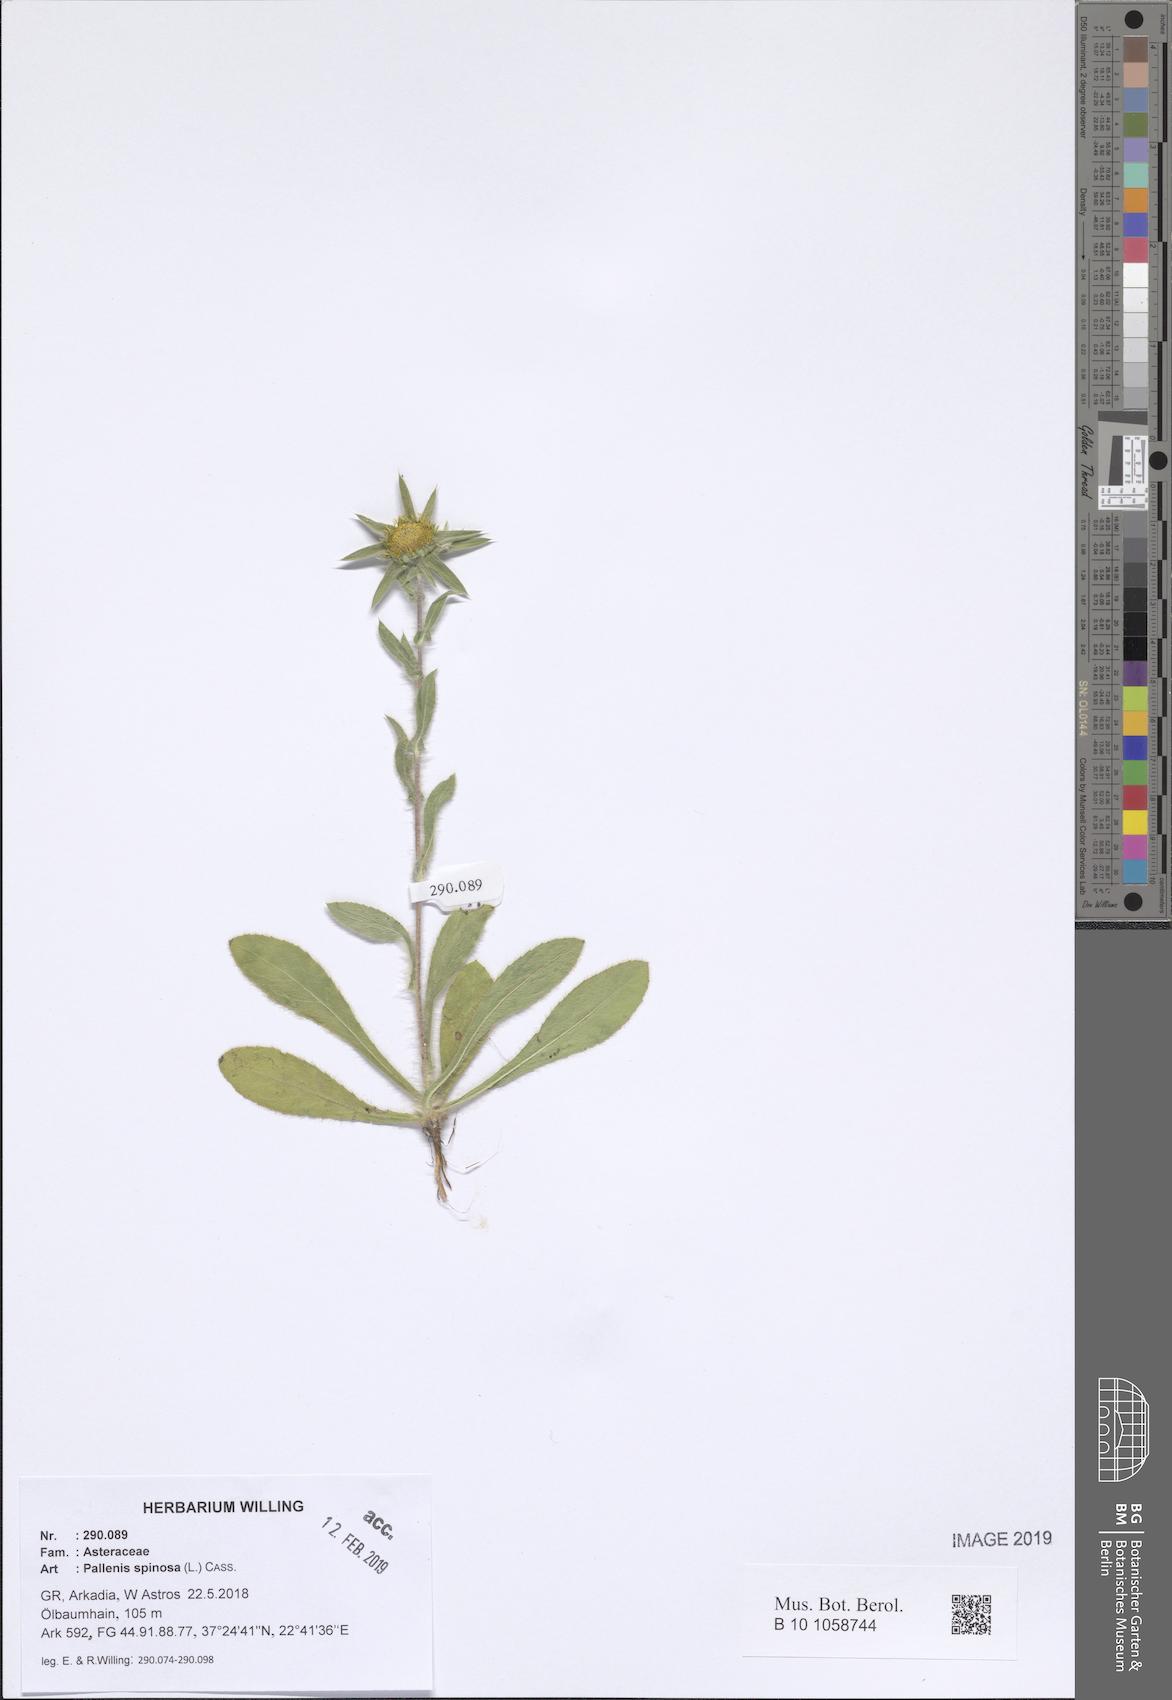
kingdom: Plantae
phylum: Tracheophyta
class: Magnoliopsida
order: Asterales
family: Asteraceae
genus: Pallenis
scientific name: Pallenis spinosa
